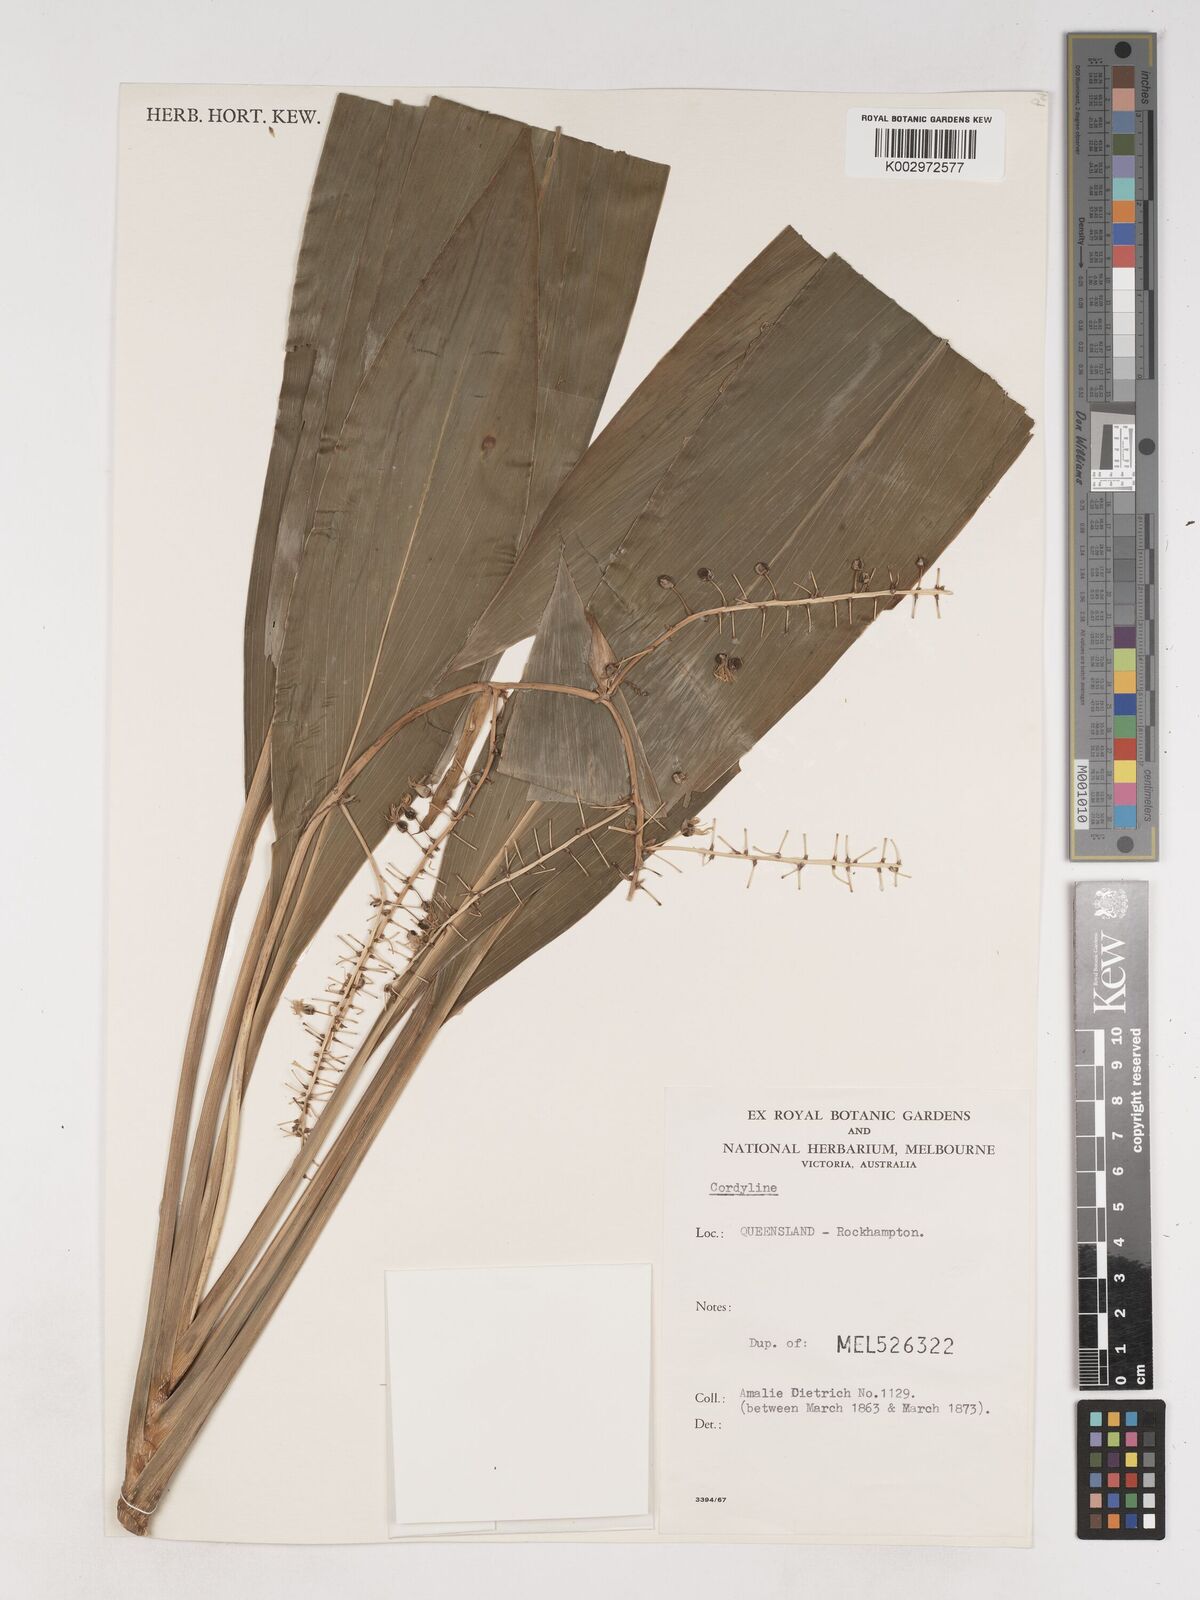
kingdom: Plantae
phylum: Tracheophyta
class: Liliopsida
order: Asparagales
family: Asparagaceae
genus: Cordyline
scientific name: Cordyline fruticosa
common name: Good-luck-plant
